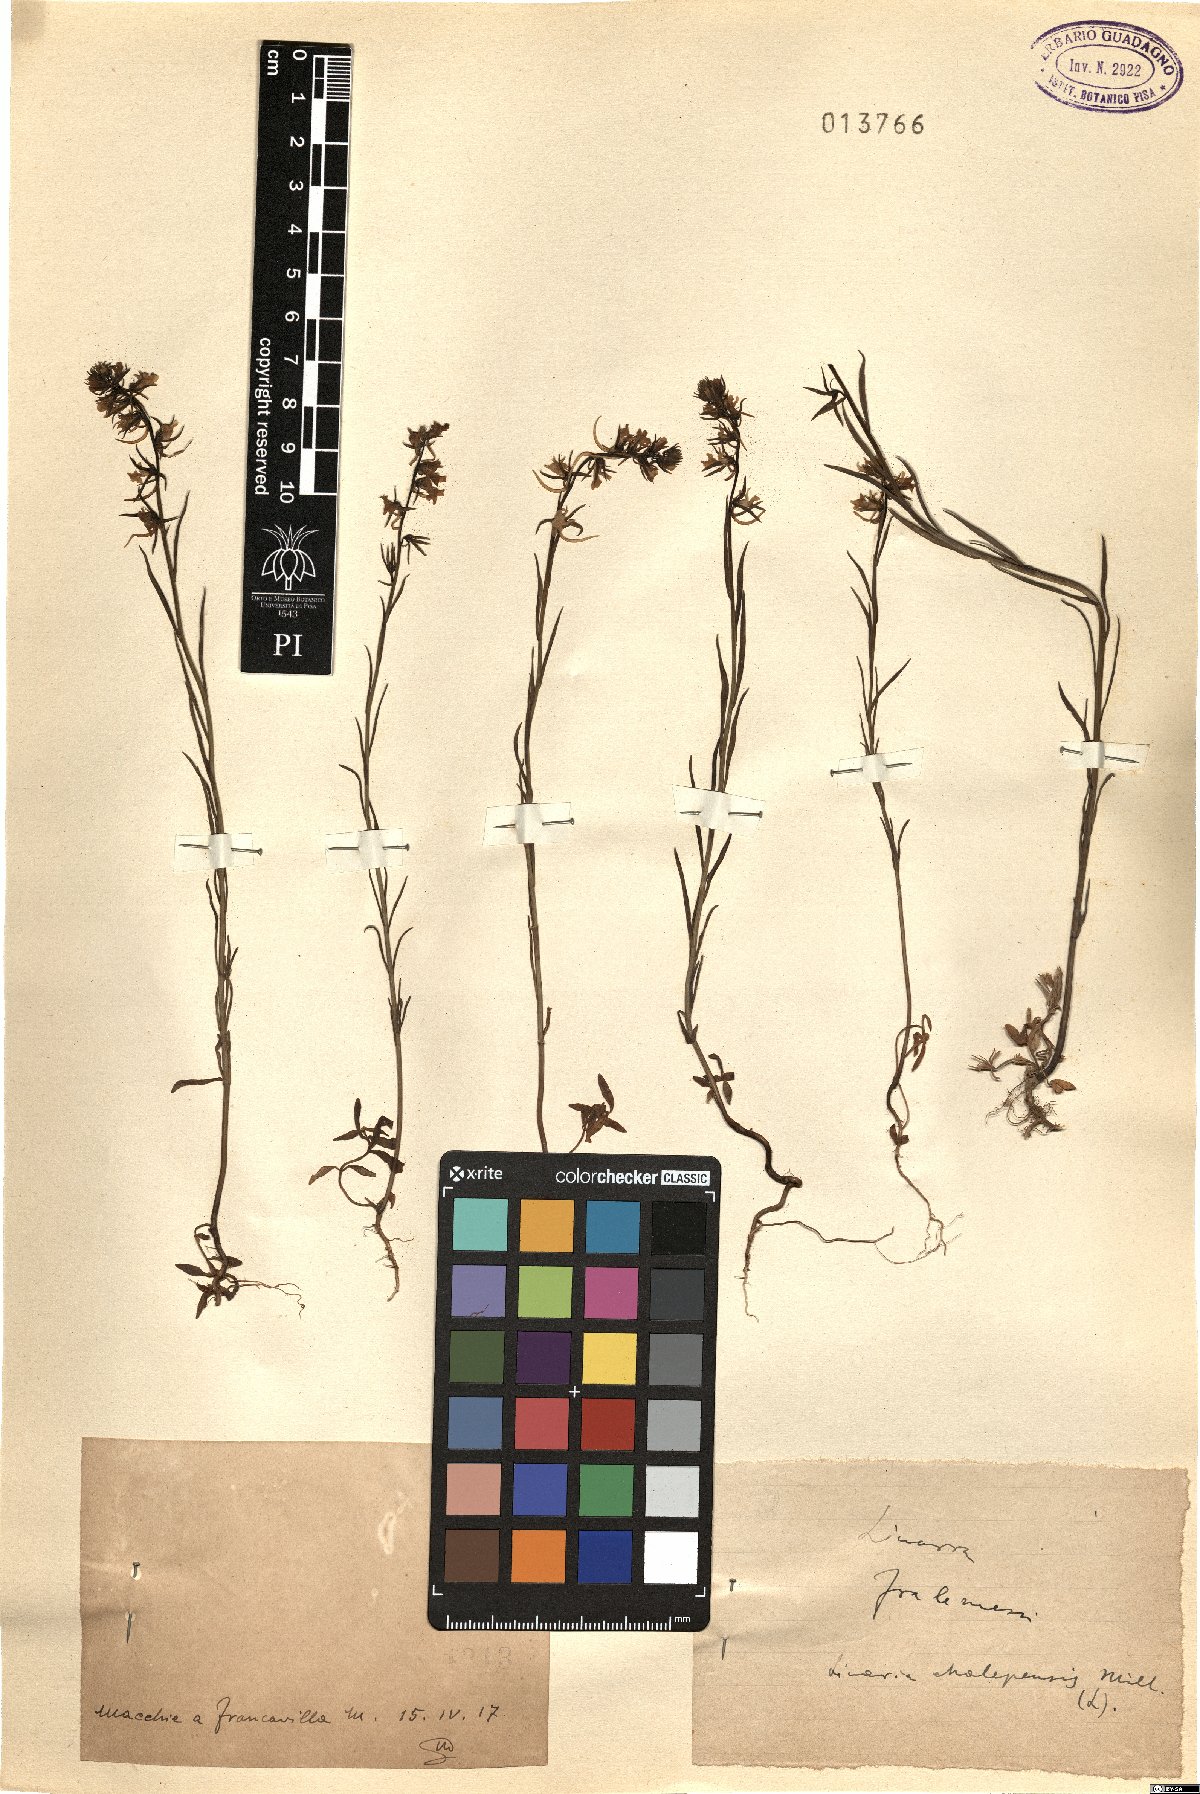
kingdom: Plantae
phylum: Tracheophyta
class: Magnoliopsida
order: Lamiales
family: Plantaginaceae
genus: Linaria
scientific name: Linaria chalepensis
